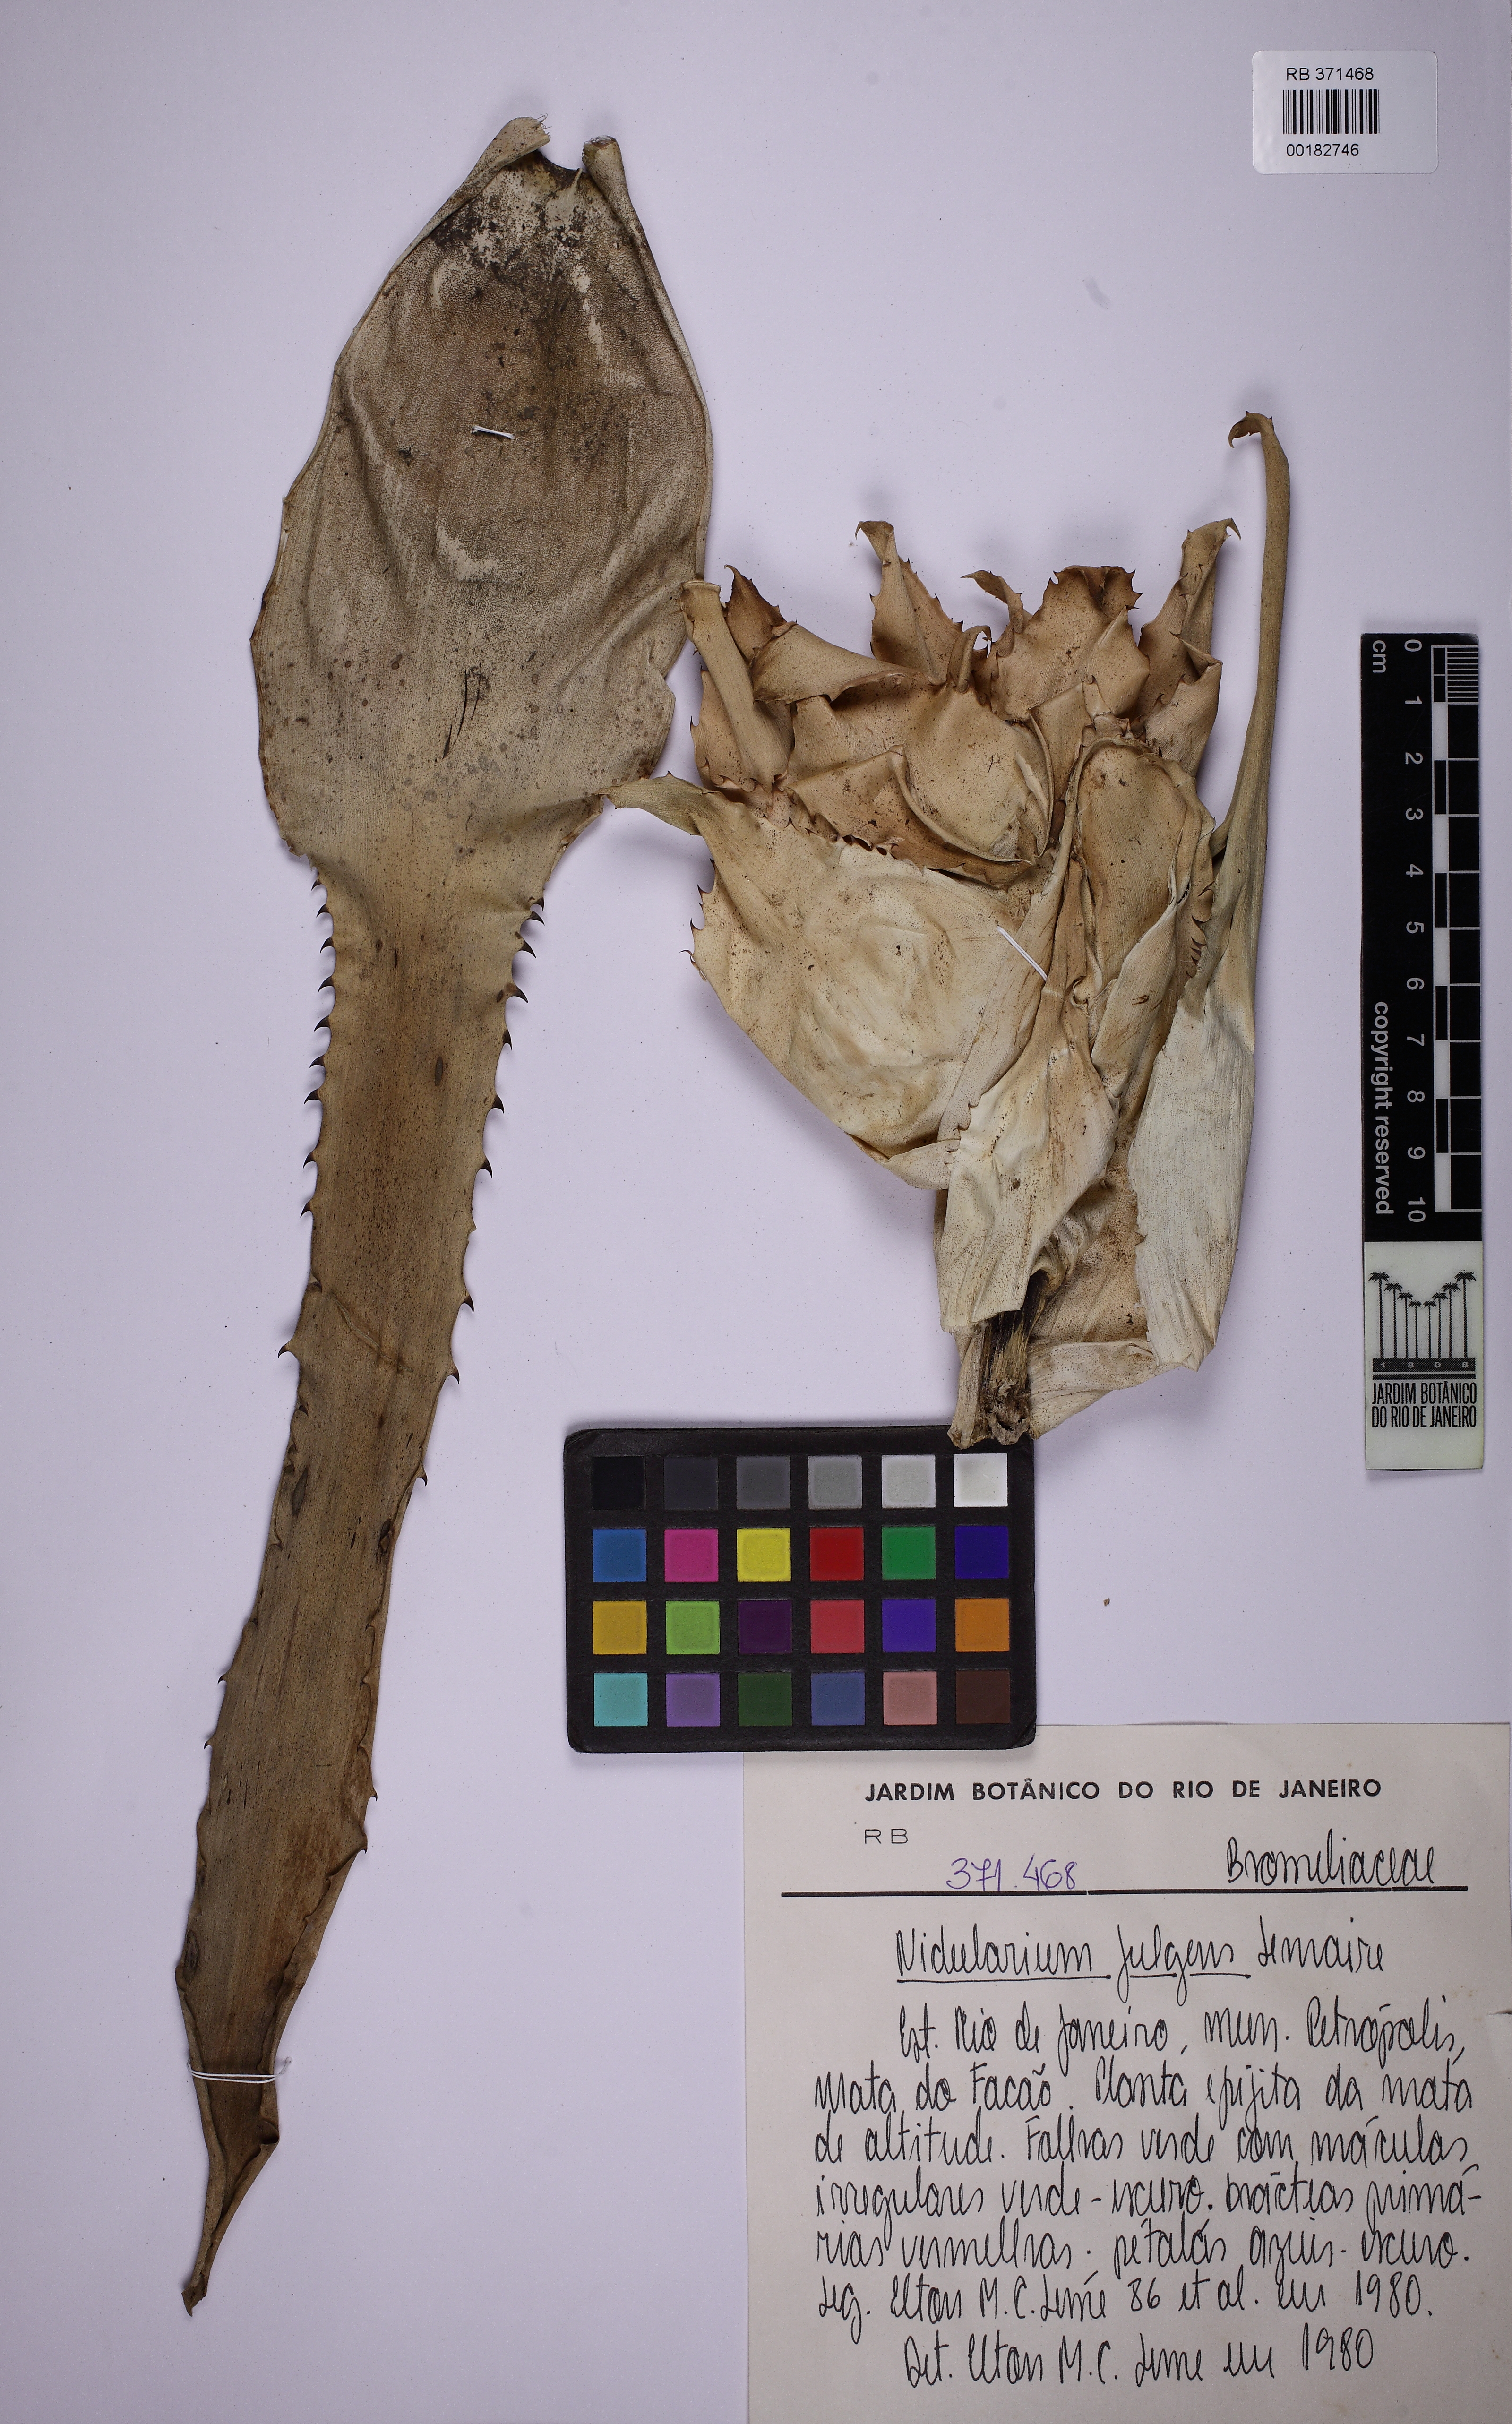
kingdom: Plantae
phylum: Tracheophyta
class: Liliopsida
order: Poales
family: Bromeliaceae
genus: Nidularium
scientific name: Nidularium fulgens
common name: Blushing bromeliad
